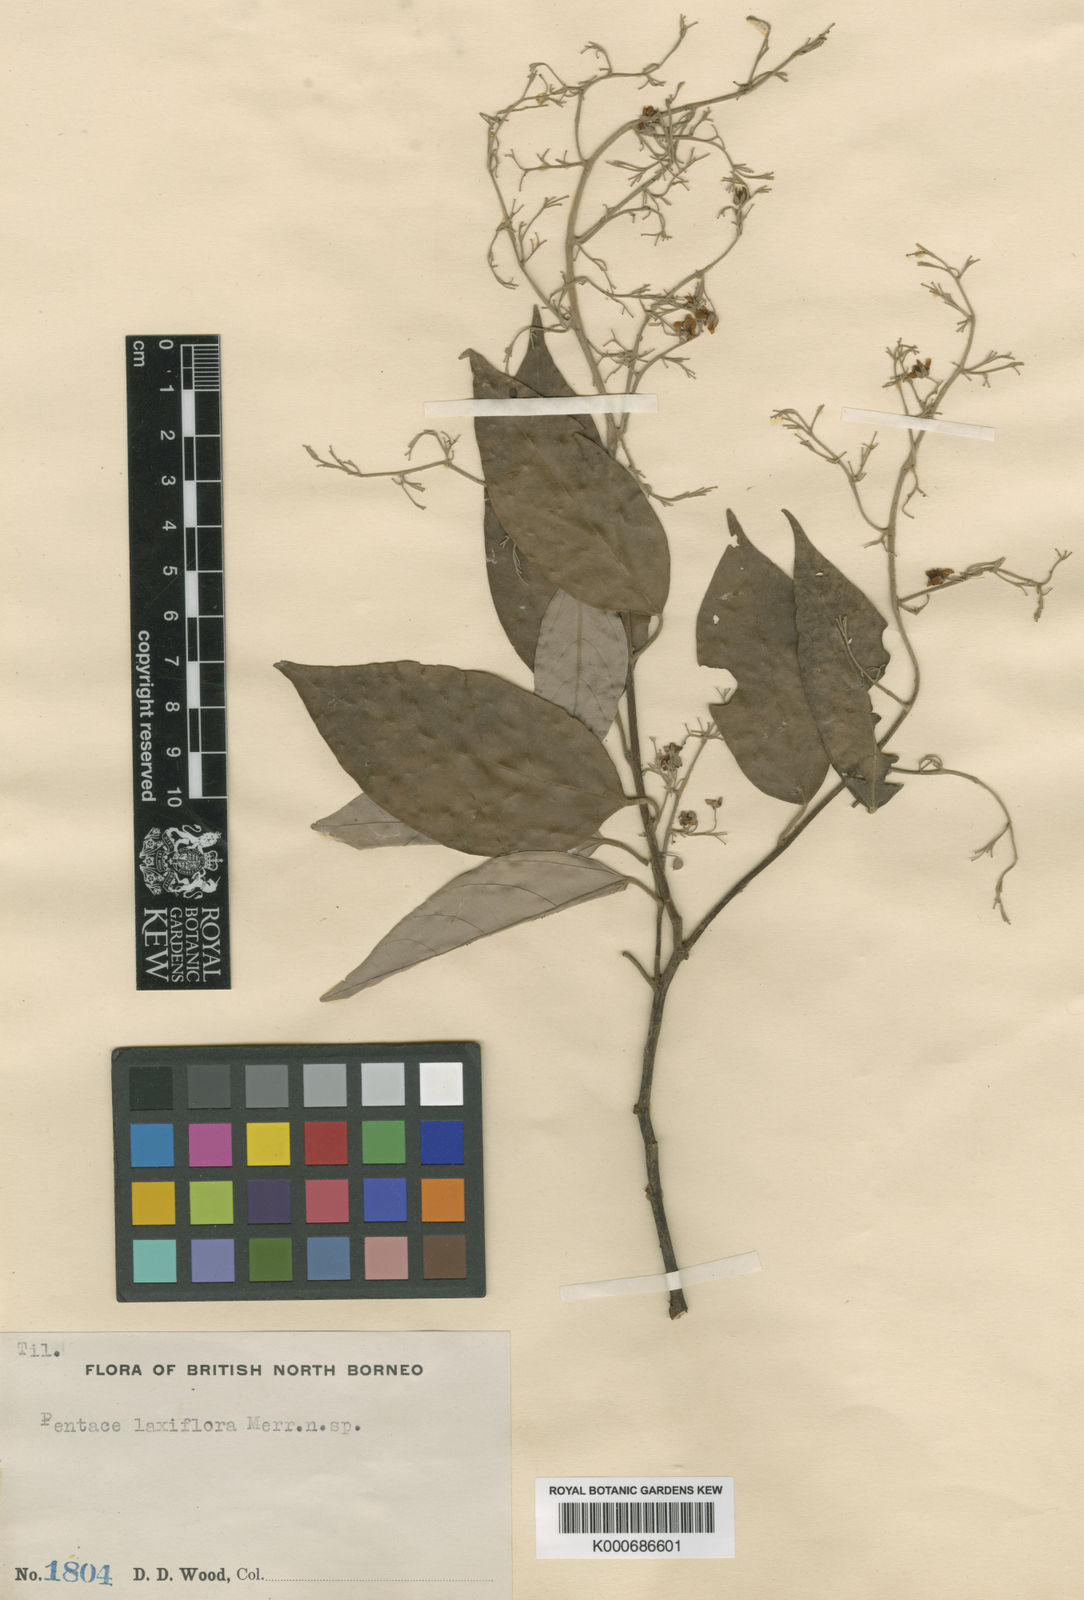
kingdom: Plantae
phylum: Tracheophyta
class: Magnoliopsida
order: Malvales
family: Malvaceae
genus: Pentace
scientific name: Pentace borneensis
